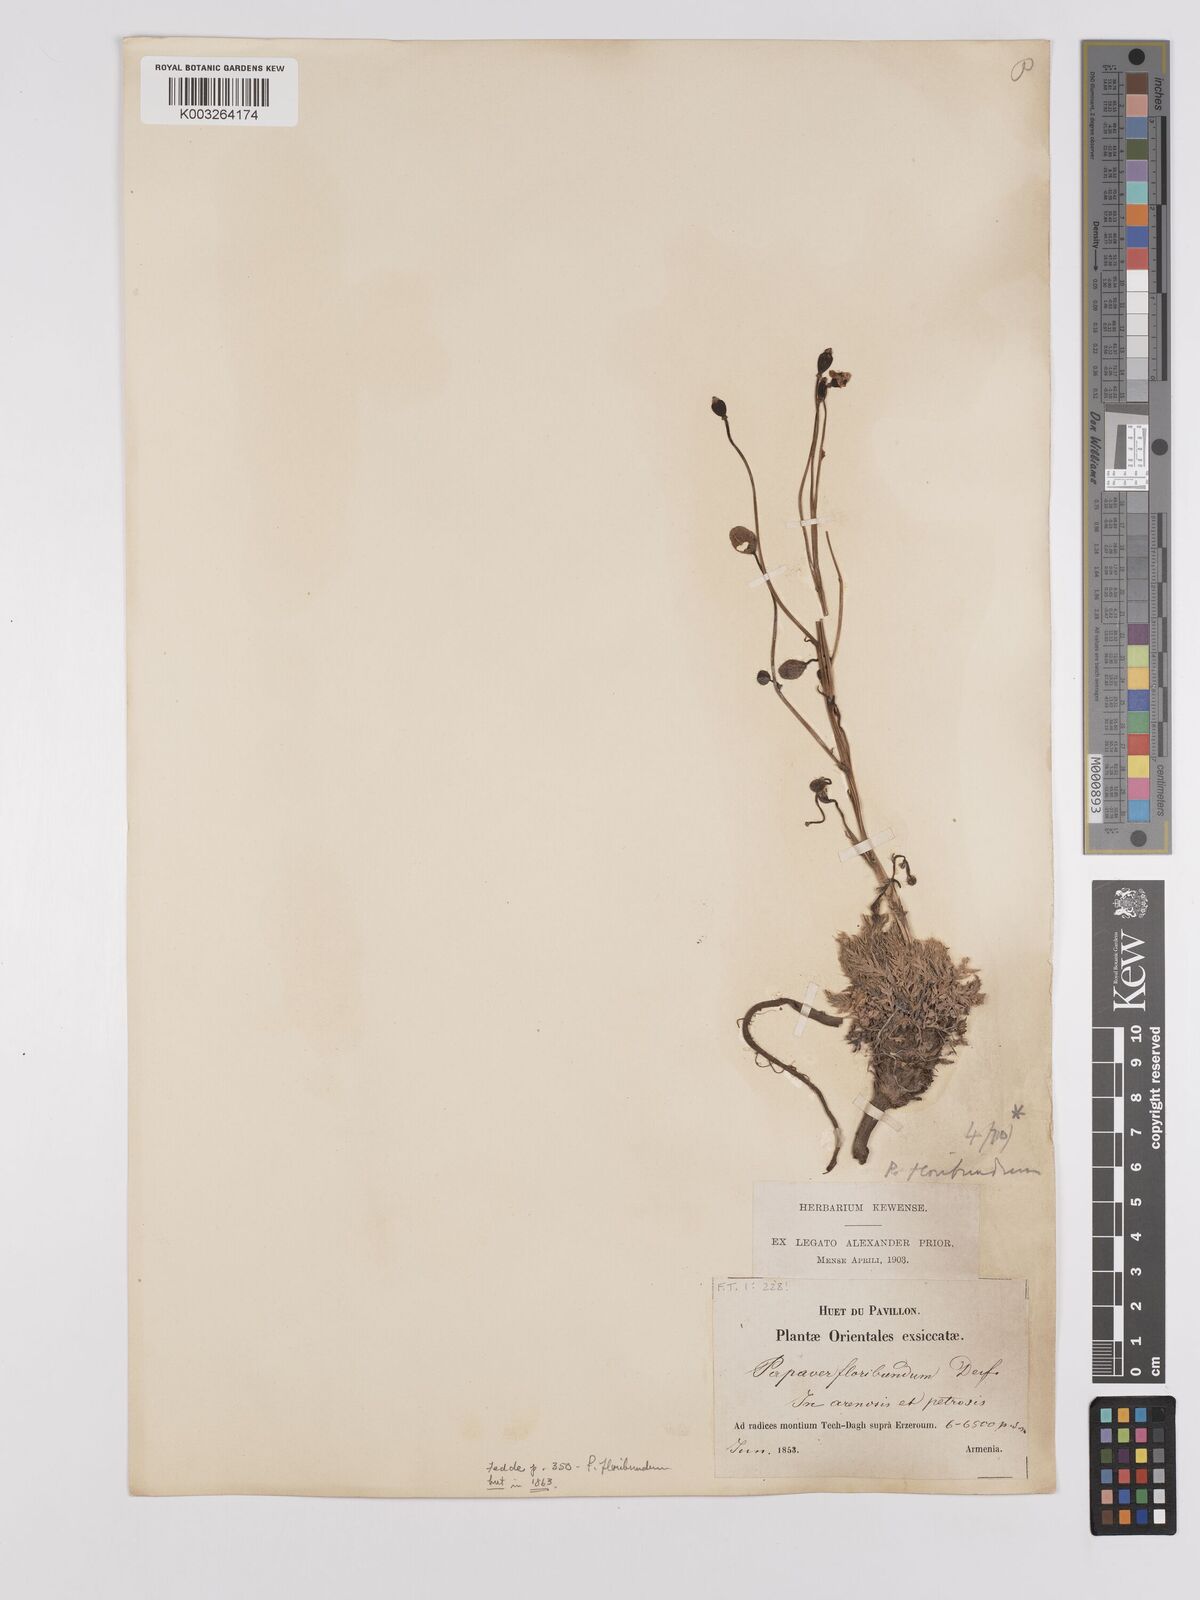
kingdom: Plantae
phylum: Tracheophyta
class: Magnoliopsida
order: Ranunculales
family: Papaveraceae
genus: Papaver
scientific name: Papaver armeniacum
